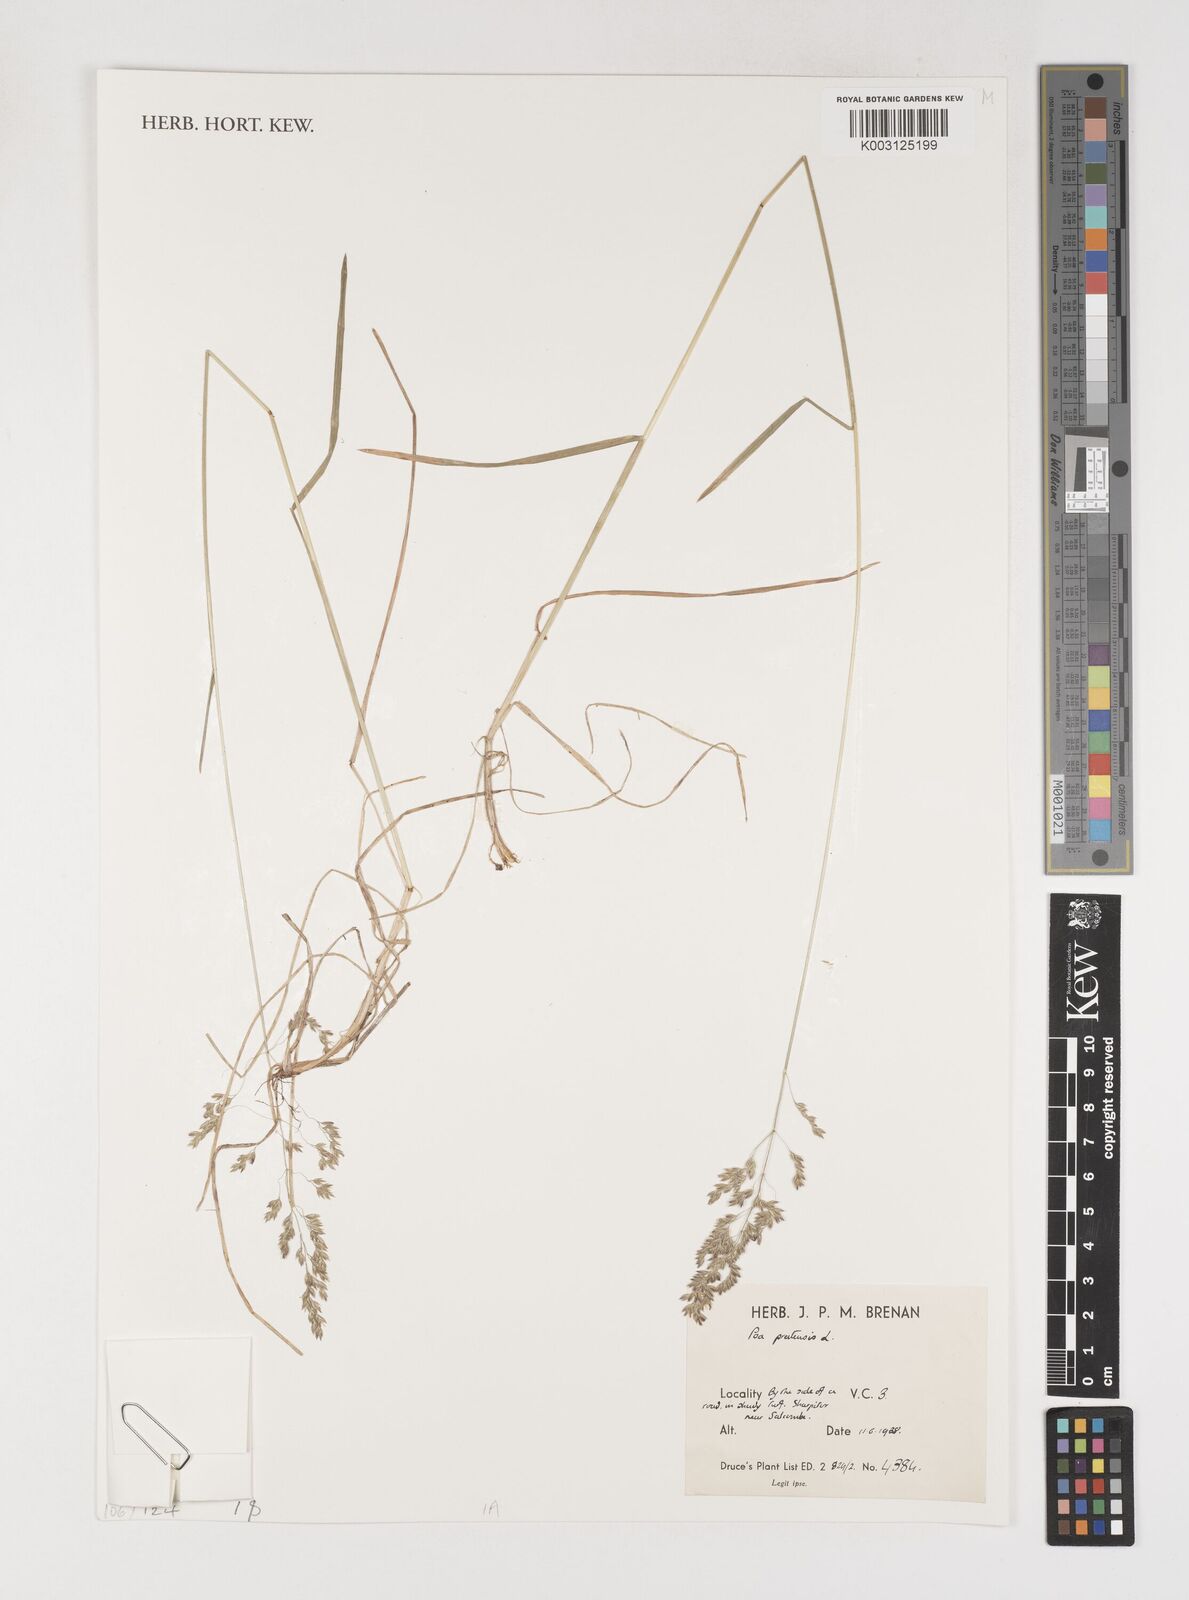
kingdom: Plantae
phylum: Tracheophyta
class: Liliopsida
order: Poales
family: Poaceae
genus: Poa
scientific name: Poa pratensis
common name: Kentucky bluegrass
